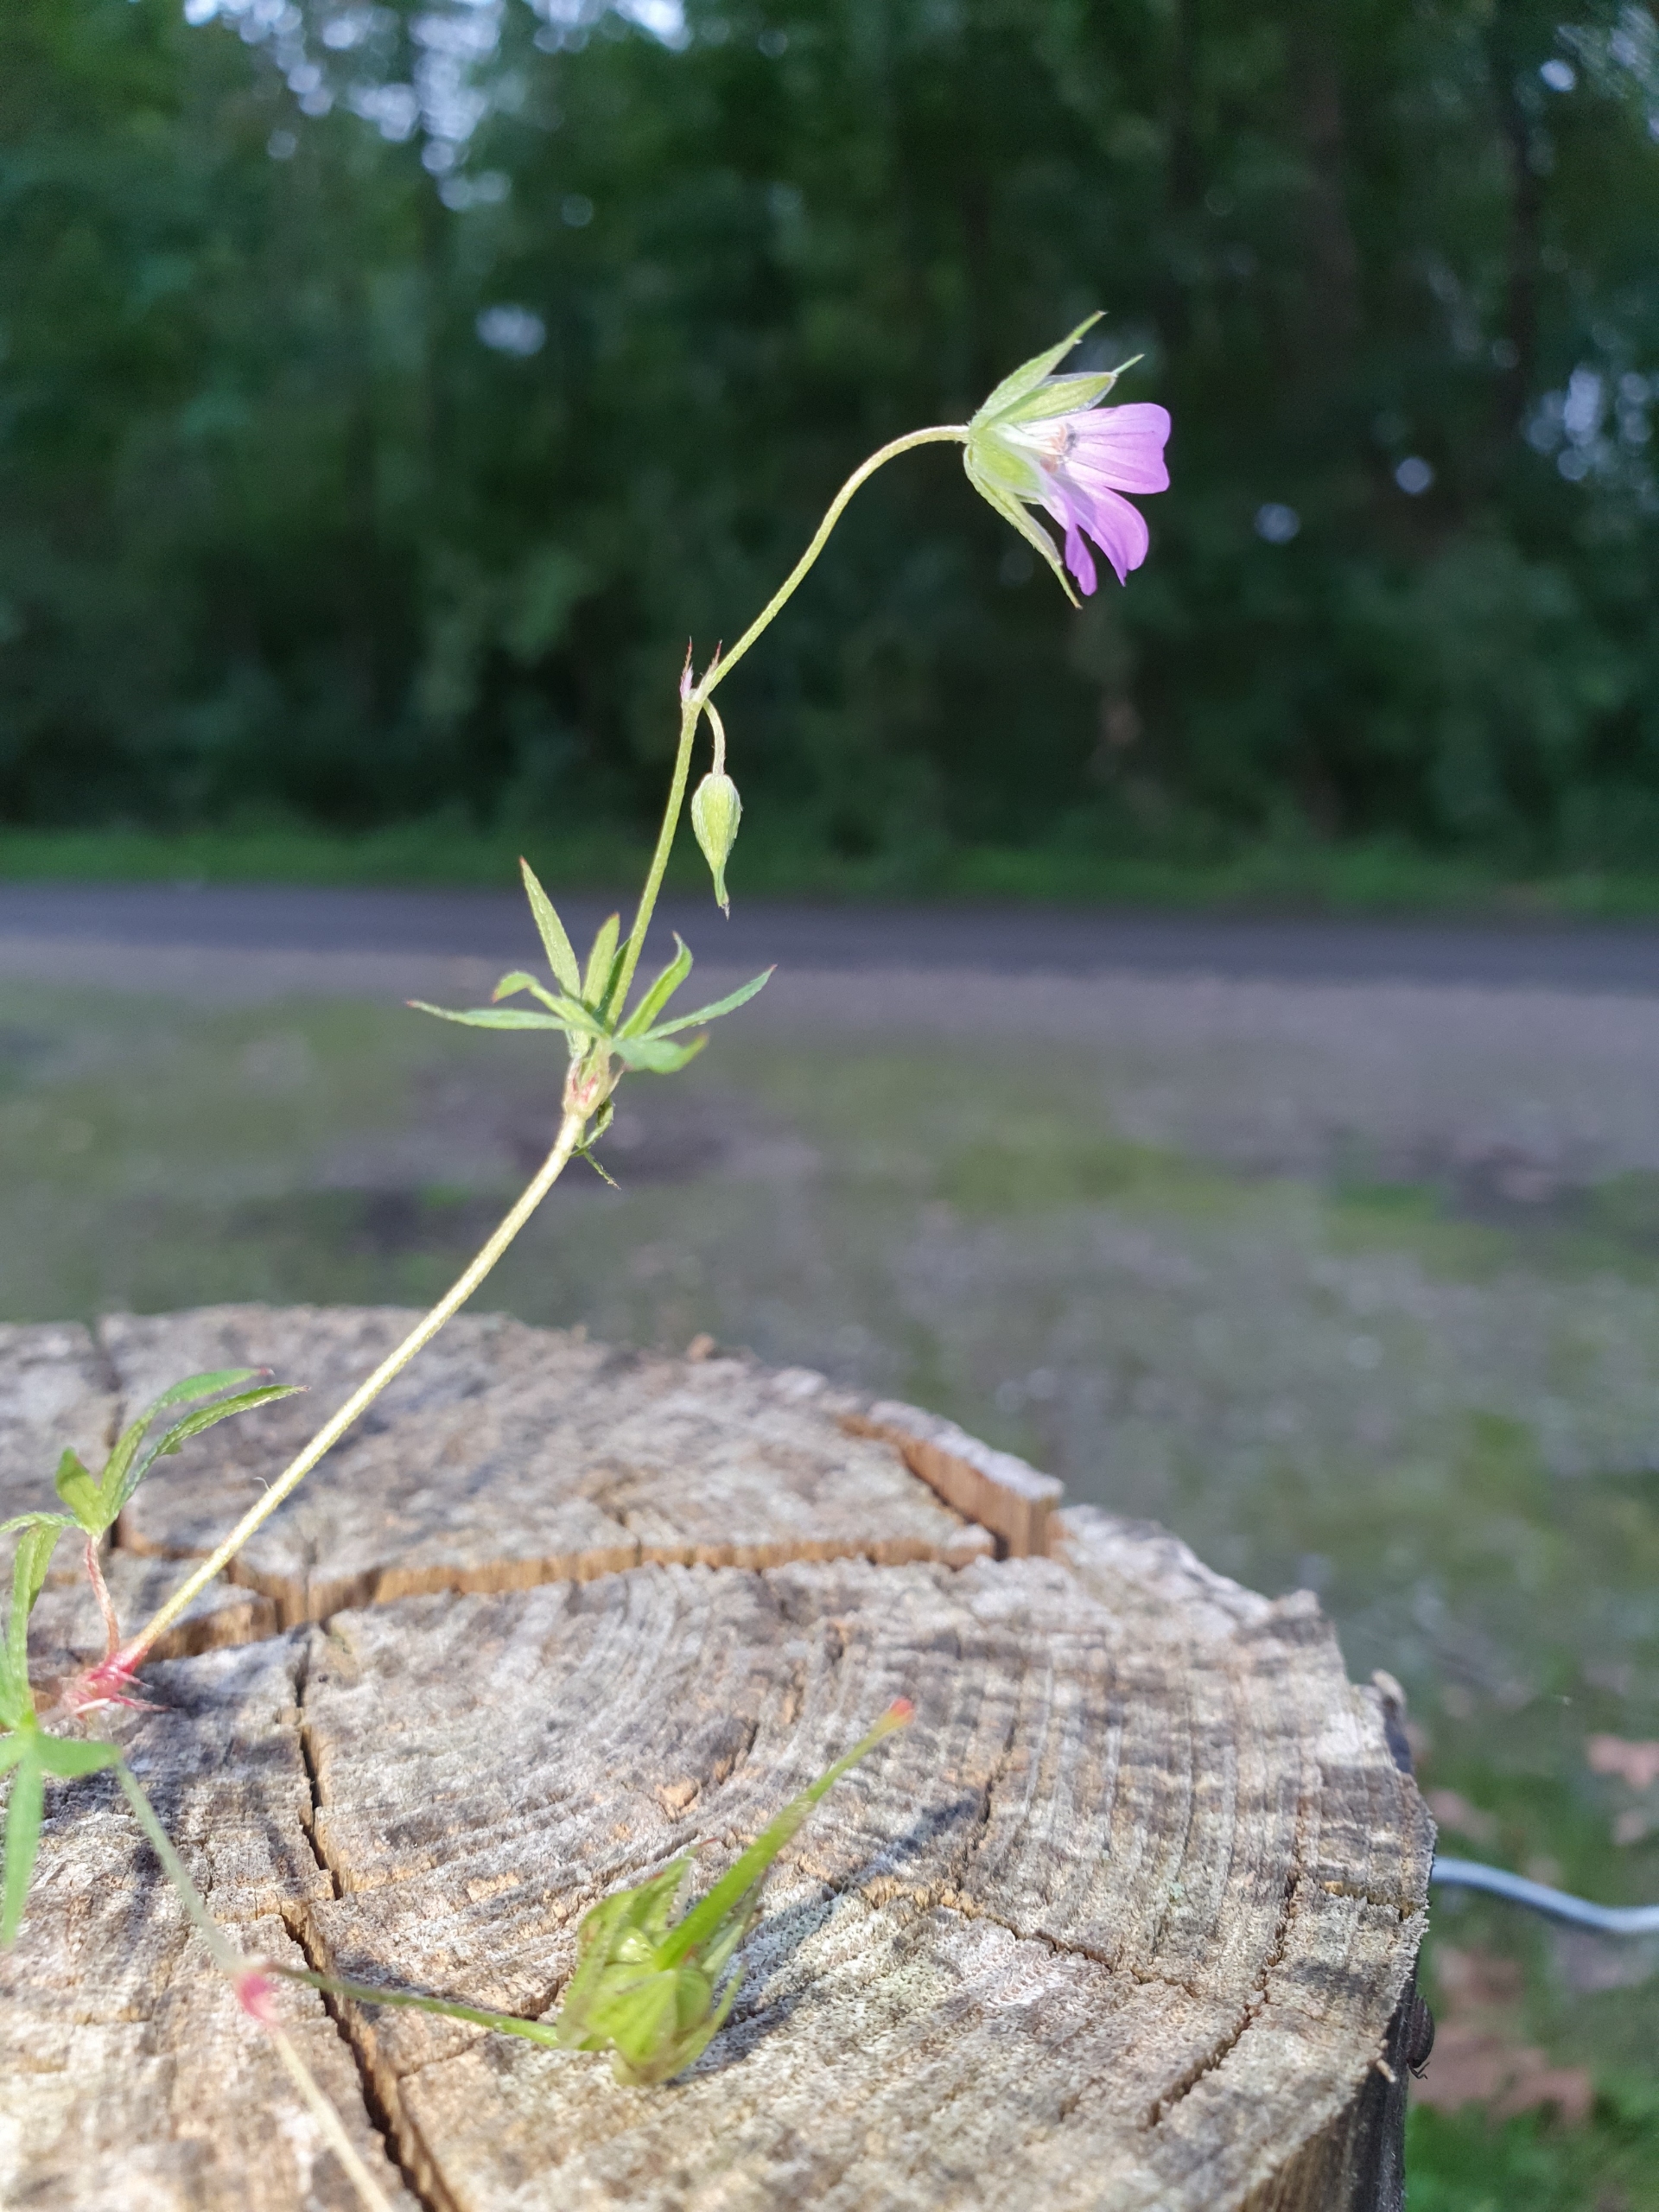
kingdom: Plantae
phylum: Tracheophyta
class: Magnoliopsida
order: Geraniales
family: Geraniaceae
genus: Geranium
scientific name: Geranium columbinum
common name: Storbægret storkenæb
